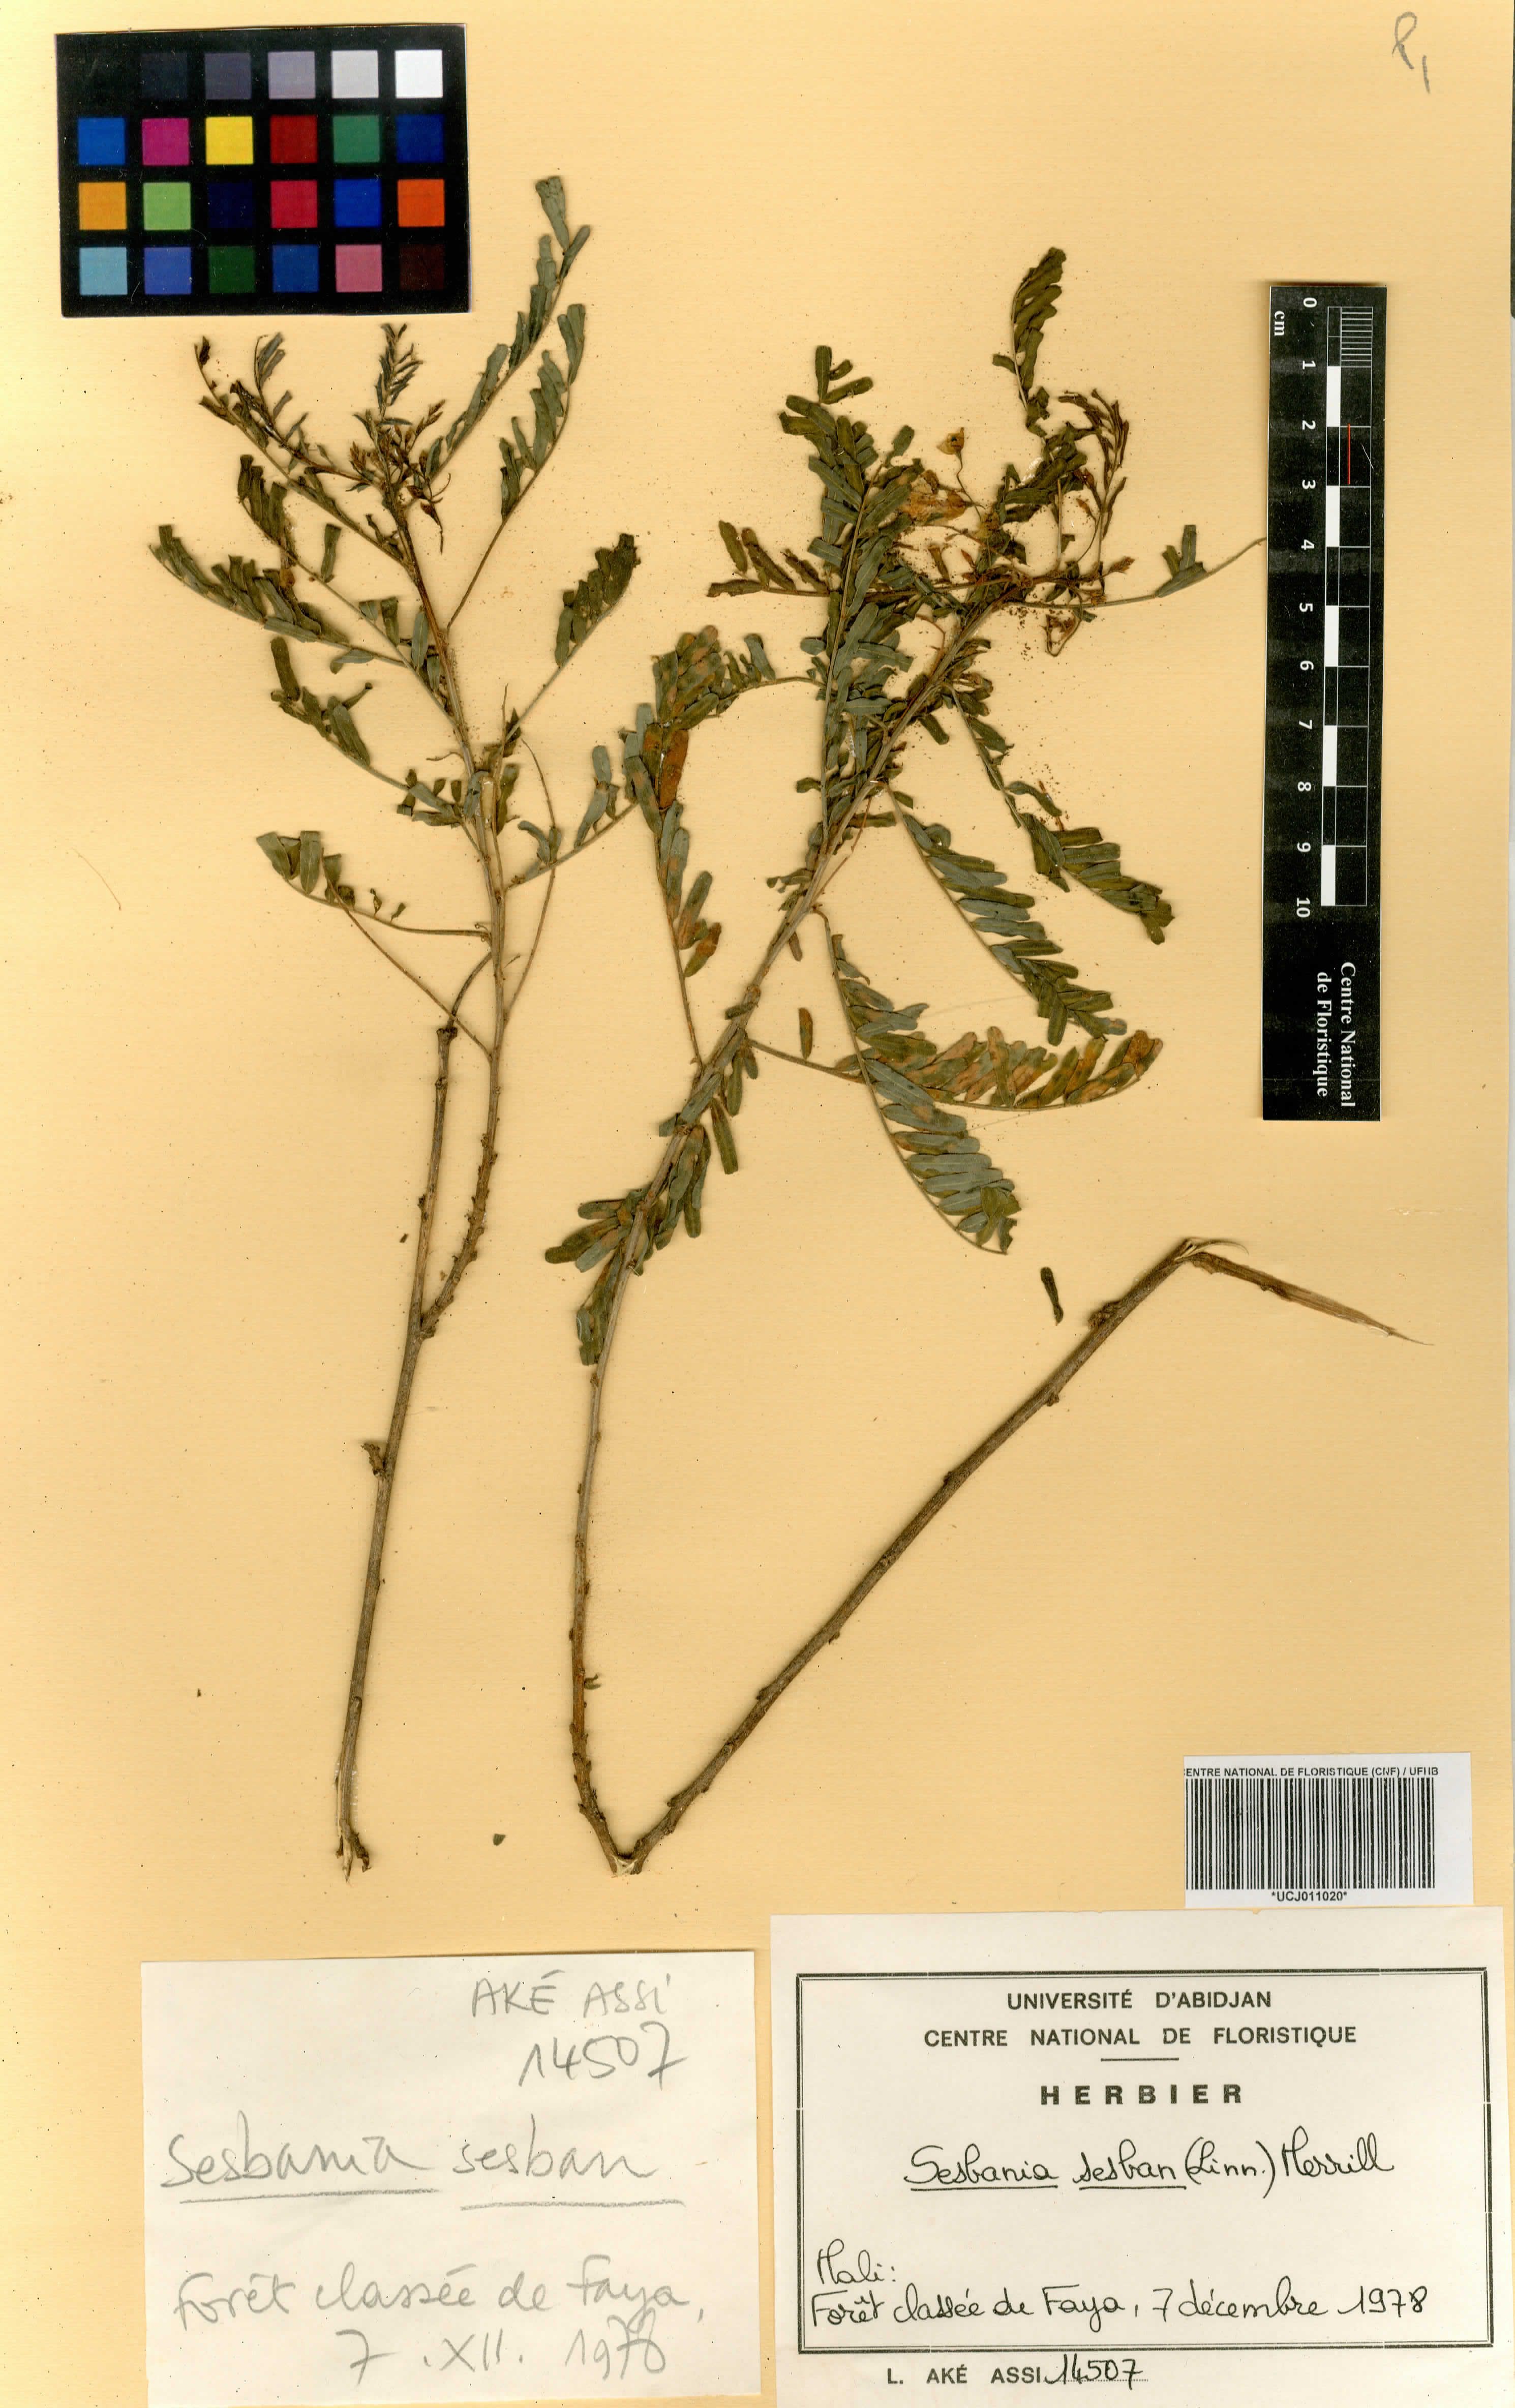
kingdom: Plantae
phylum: Tracheophyta
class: Magnoliopsida
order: Fabales
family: Fabaceae
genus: Sesbania
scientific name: Sesbania sesban
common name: Egyptian sesban
